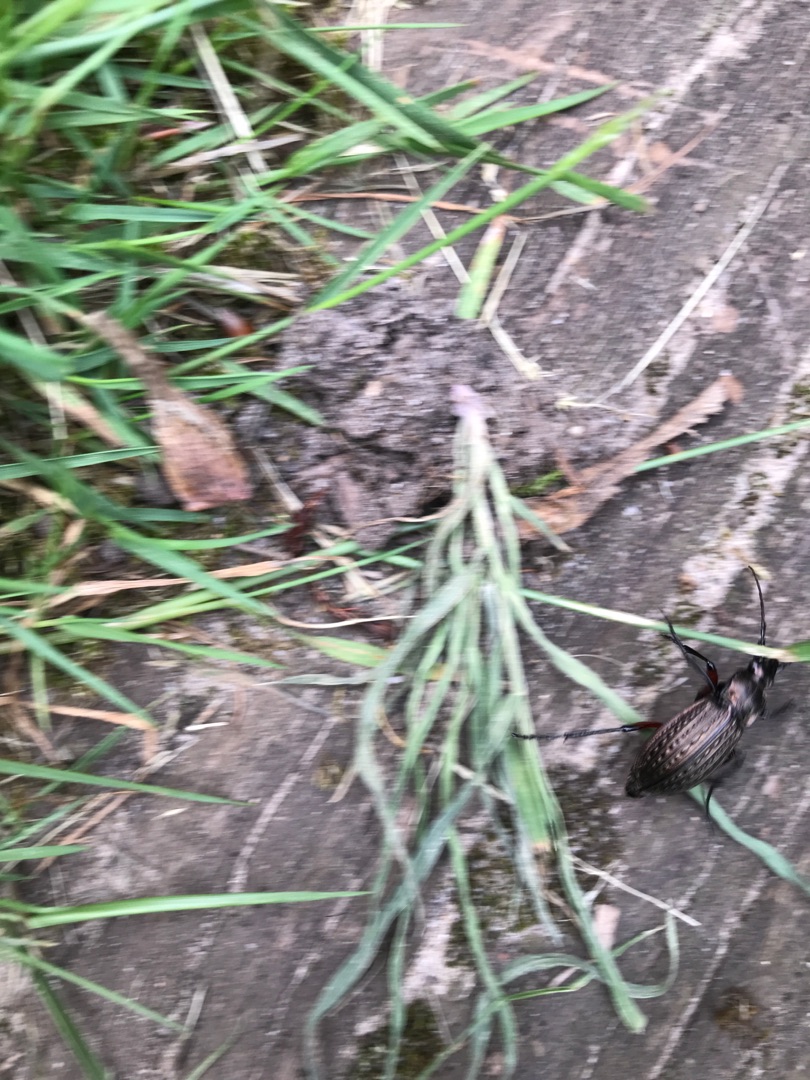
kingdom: Animalia
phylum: Arthropoda
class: Insecta
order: Coleoptera
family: Carabidae
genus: Carabus
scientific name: Carabus granulatus
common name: Kornet løber
